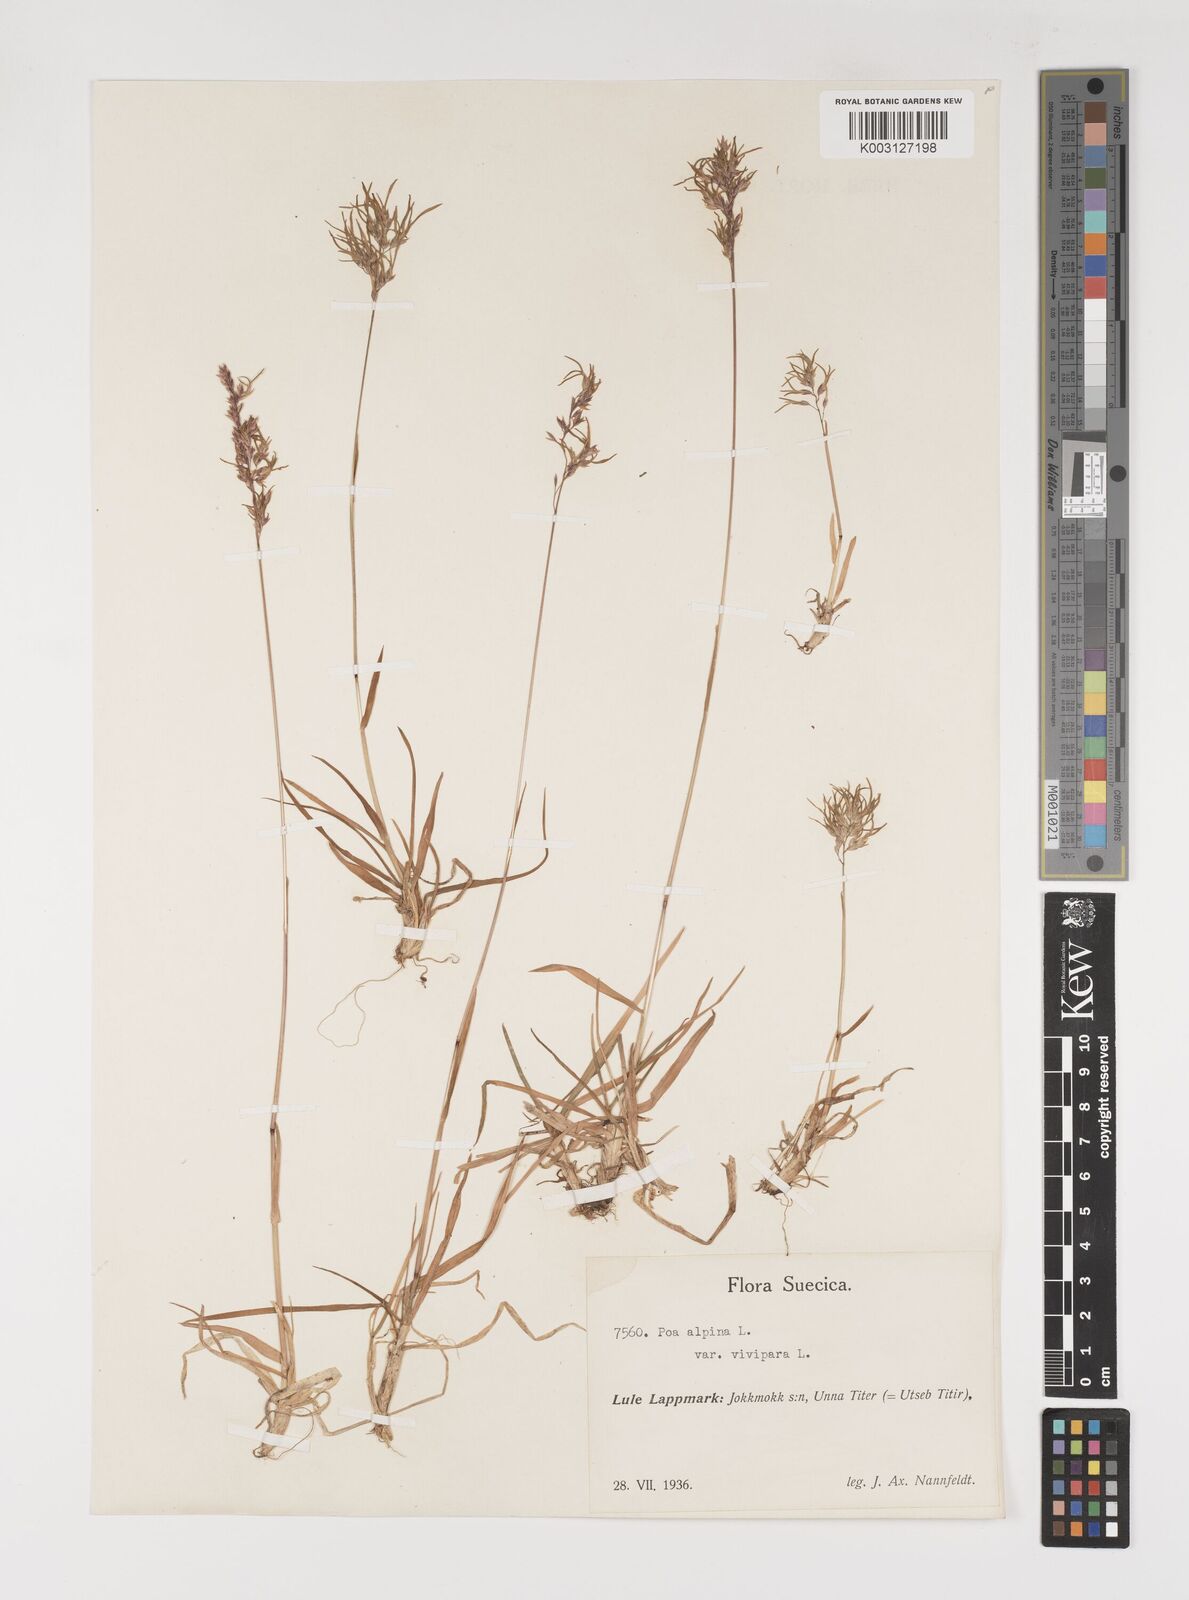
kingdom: Plantae
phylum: Tracheophyta
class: Liliopsida
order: Poales
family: Poaceae
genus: Poa
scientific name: Poa alpina
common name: Alpine bluegrass
